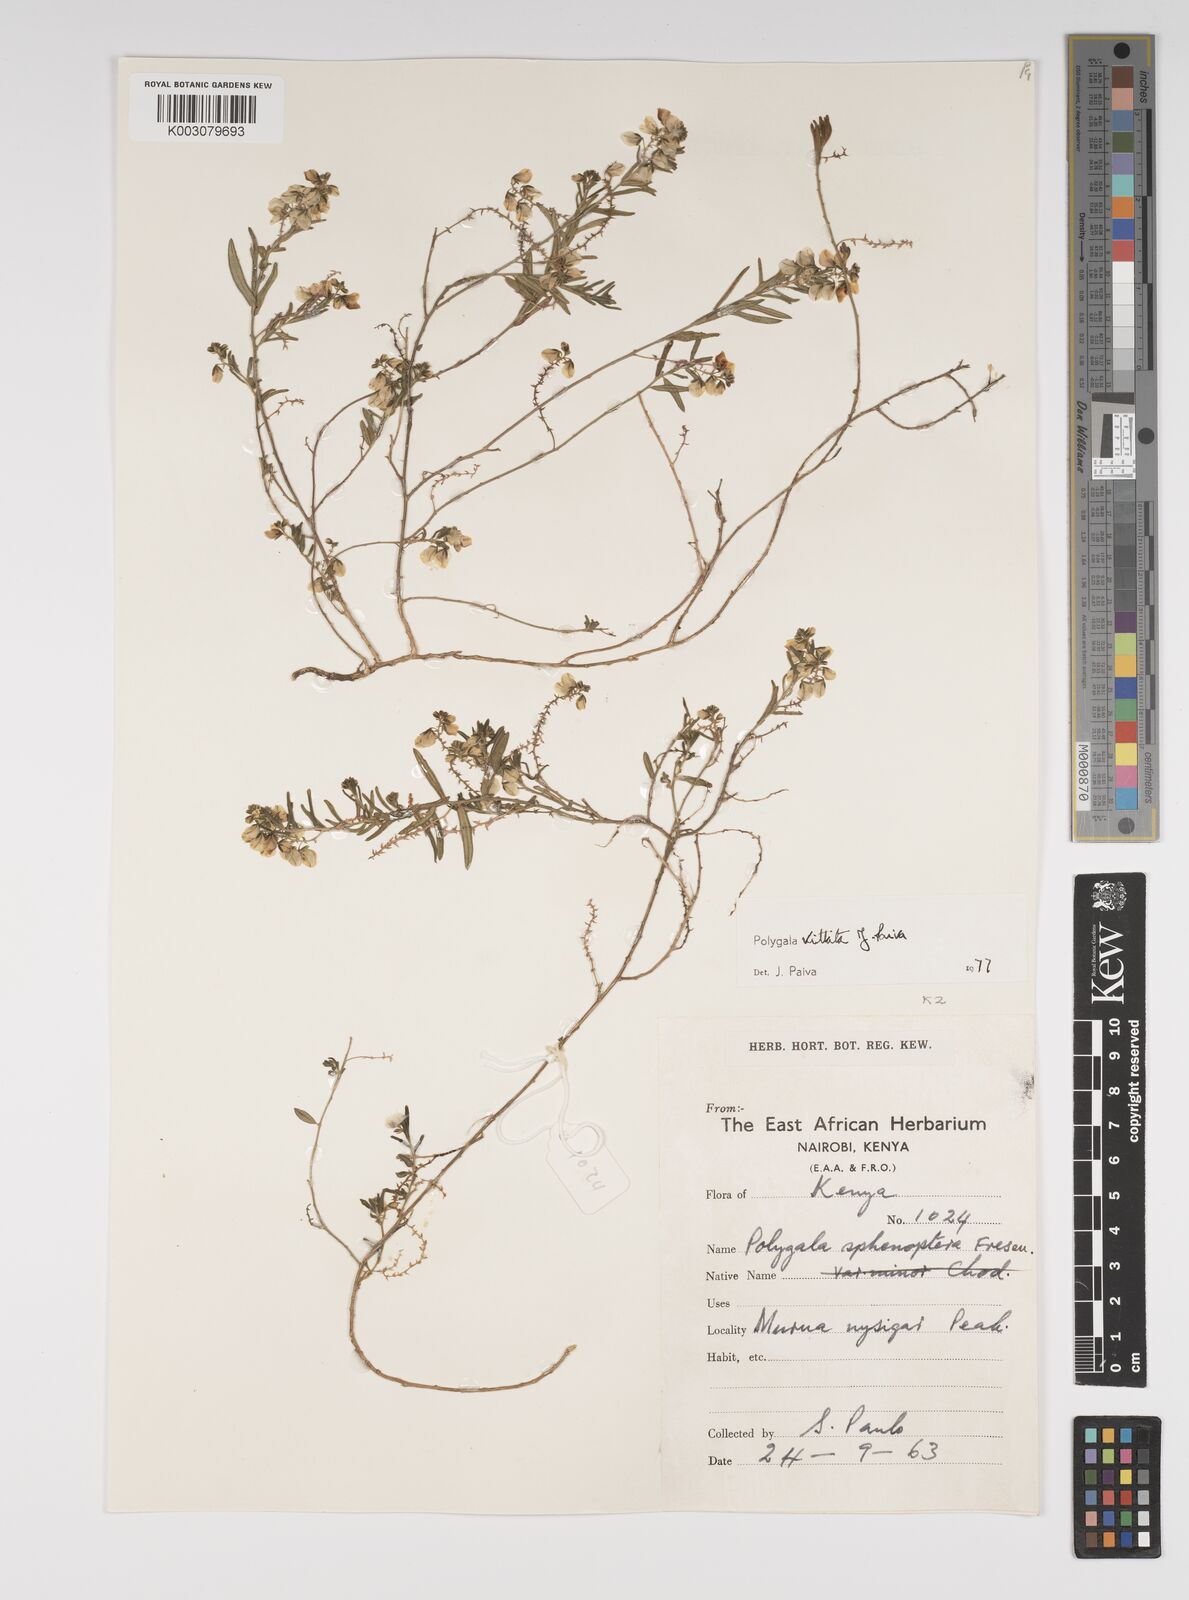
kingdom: Plantae
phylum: Tracheophyta
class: Magnoliopsida
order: Fabales
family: Polygalaceae
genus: Polygala
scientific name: Polygala vittata
